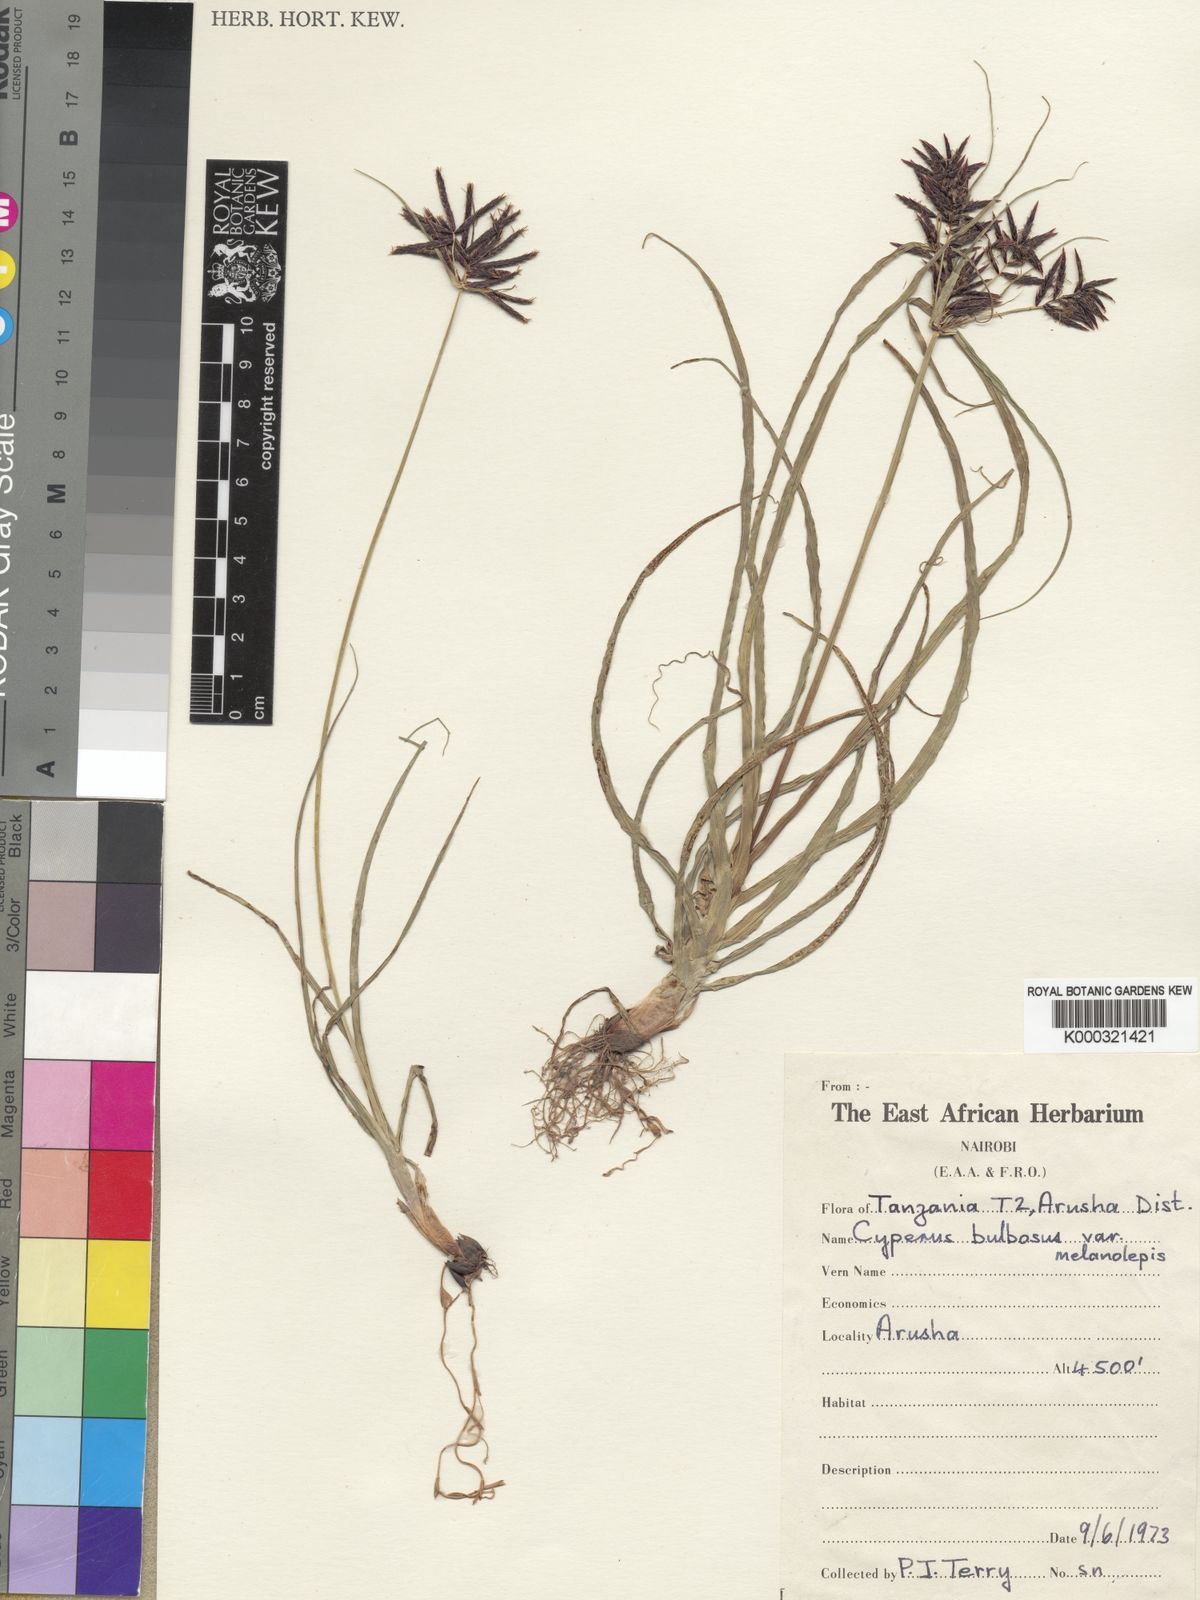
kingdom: Plantae
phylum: Tracheophyta
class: Liliopsida
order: Poales
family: Cyperaceae
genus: Cyperus
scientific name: Cyperus bulbosus
